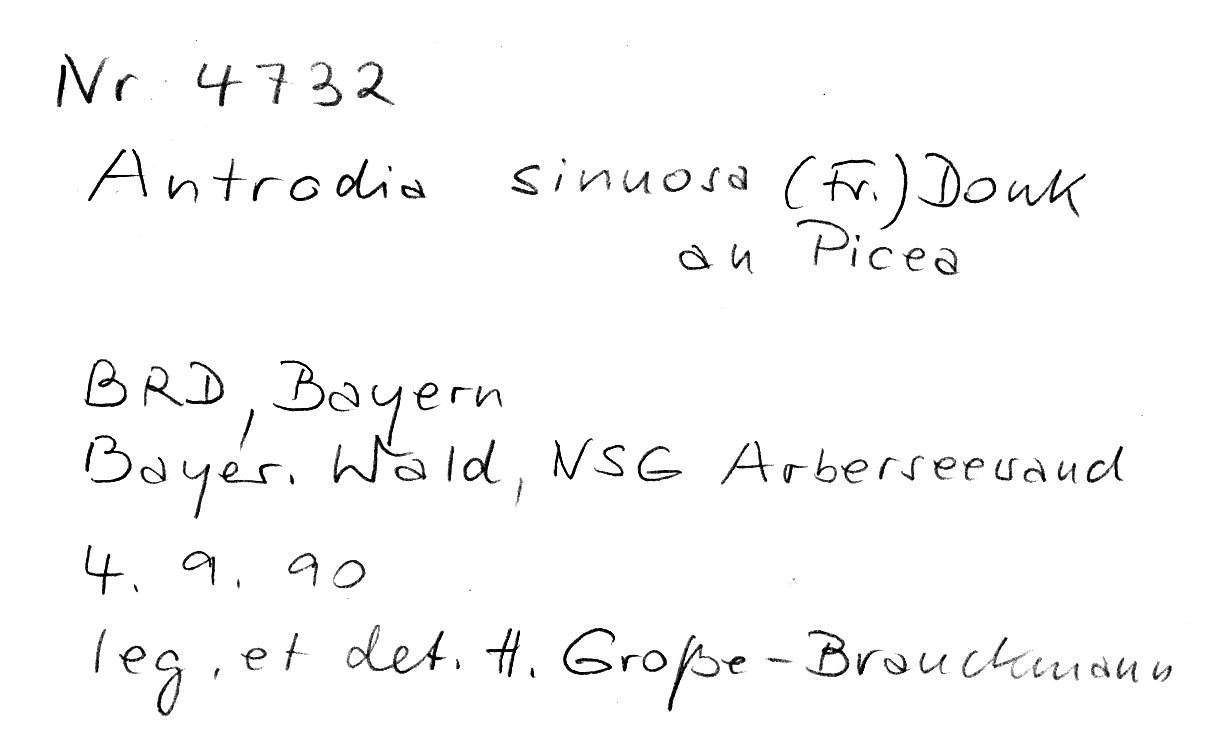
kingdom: Fungi
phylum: Basidiomycota
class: Agaricomycetes
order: Polyporales
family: Fomitopsidaceae
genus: Antrodia
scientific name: Antrodia sinuosa
